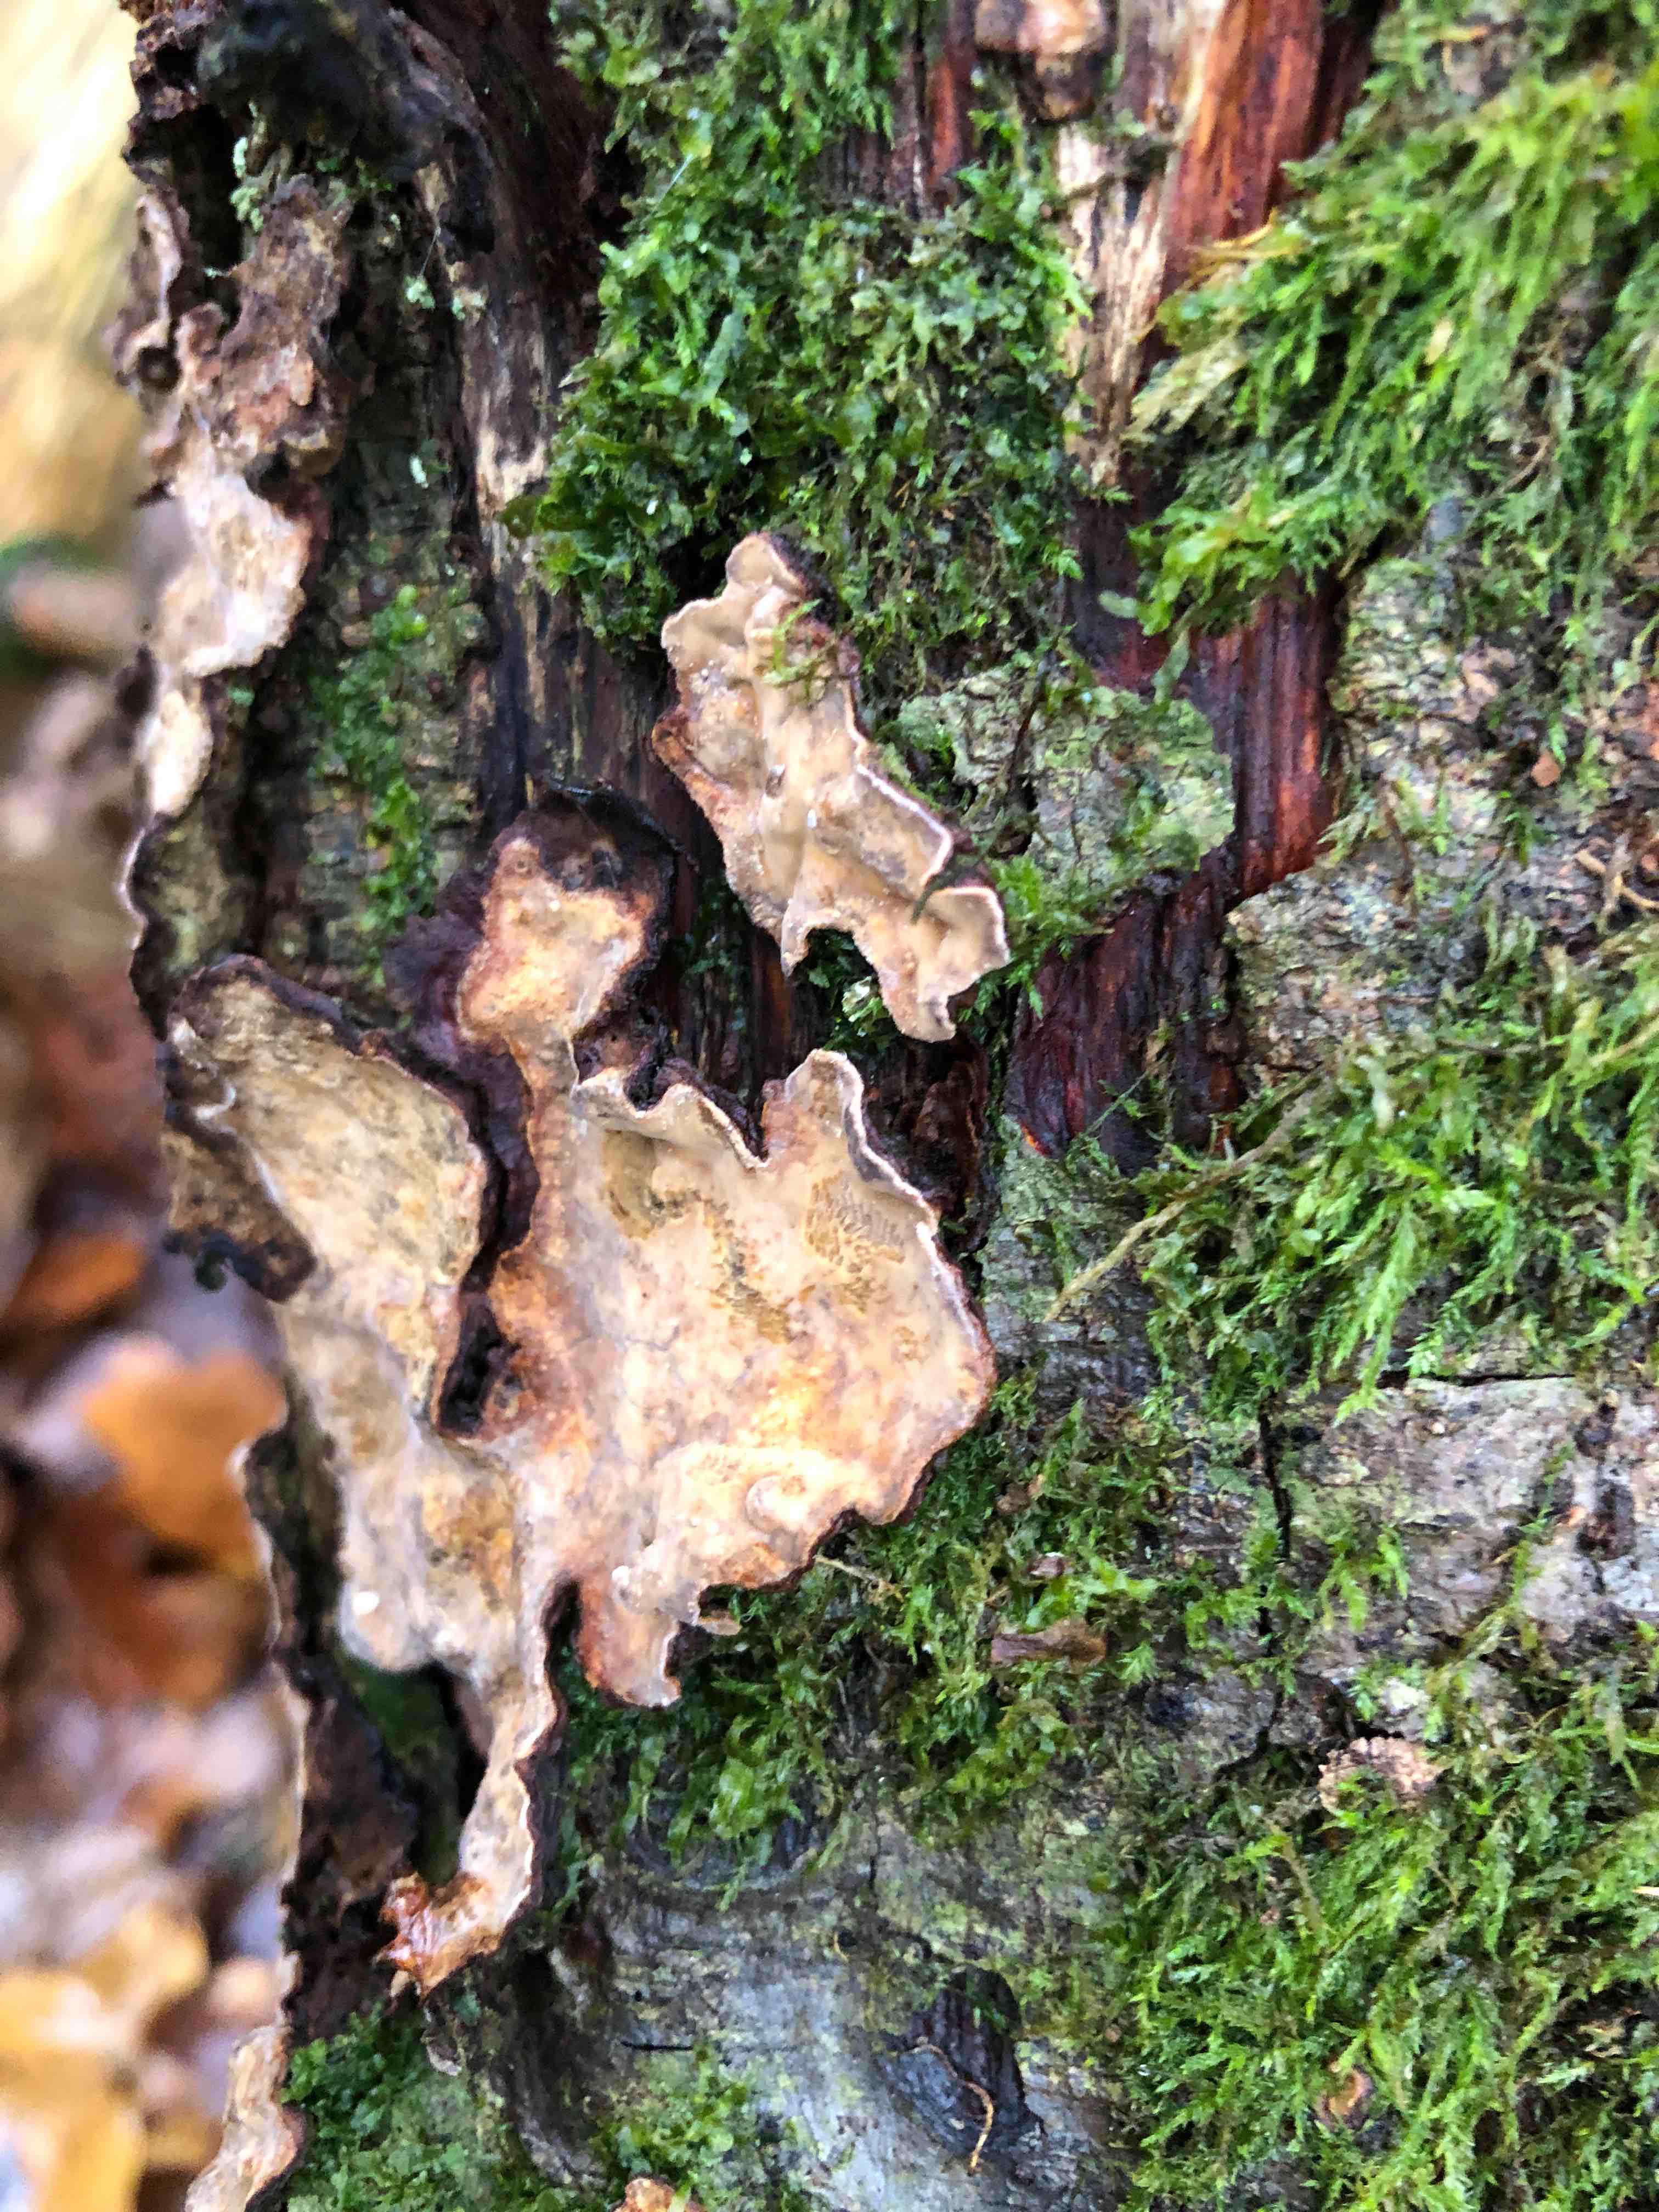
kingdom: Fungi
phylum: Basidiomycota
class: Agaricomycetes
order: Russulales
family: Stereaceae
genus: Stereum
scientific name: Stereum rugosum
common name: rynket lædersvamp
